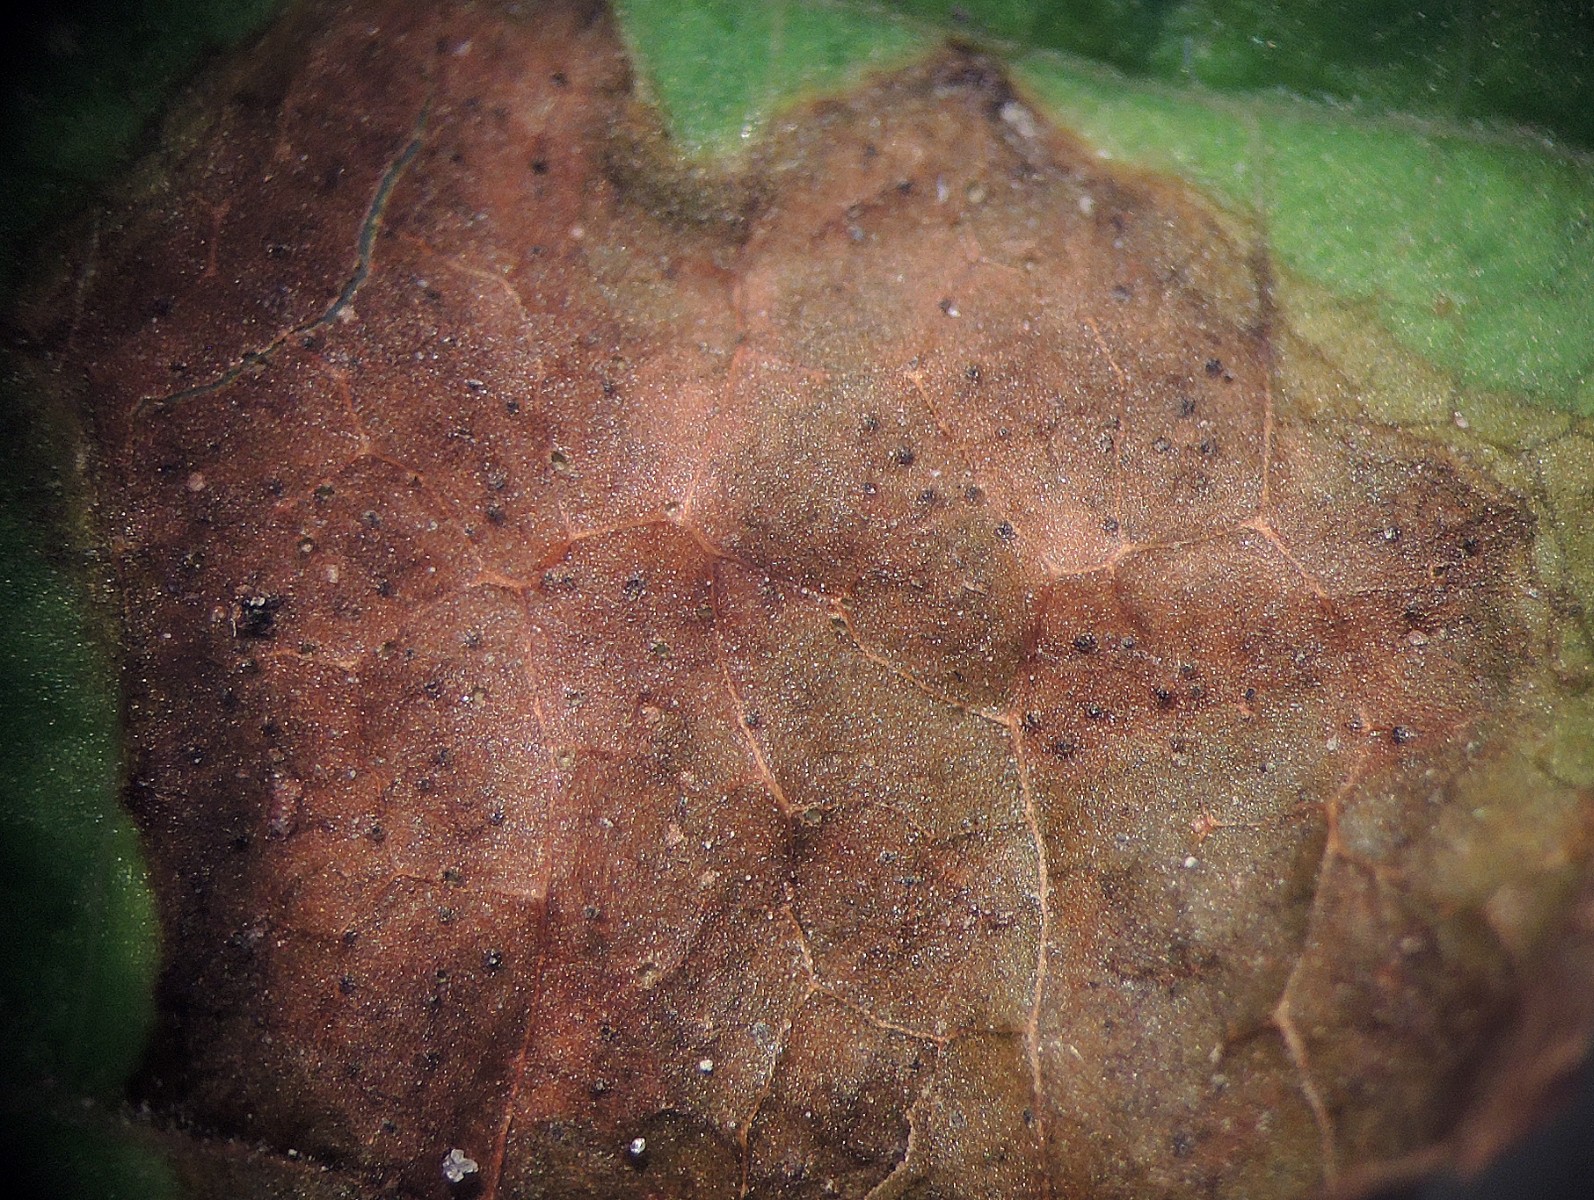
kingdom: Fungi
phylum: Ascomycota
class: Dothideomycetes
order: Botryosphaeriales
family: Phyllostictaceae
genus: Phyllosticta
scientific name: Phyllosticta paviae
